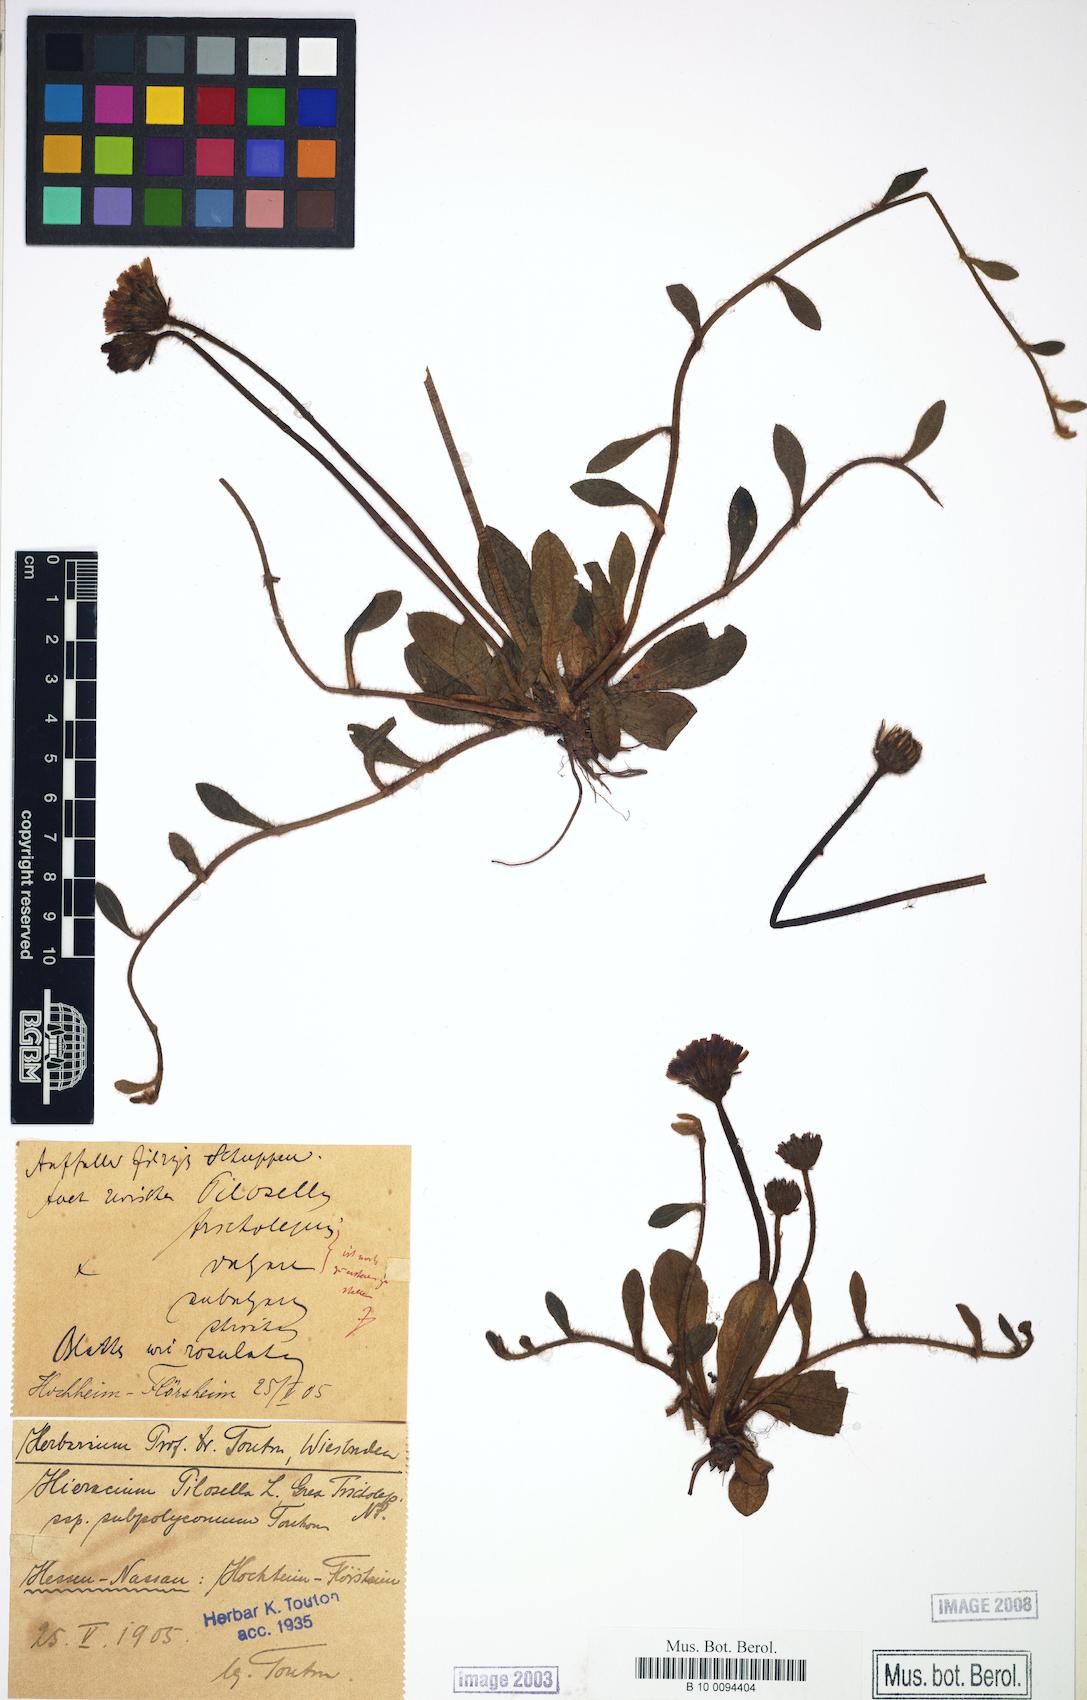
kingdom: Plantae
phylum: Tracheophyta
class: Magnoliopsida
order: Asterales
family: Asteraceae
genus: Pilosella
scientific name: Pilosella officinarum
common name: Mouse-ear hawkweed
